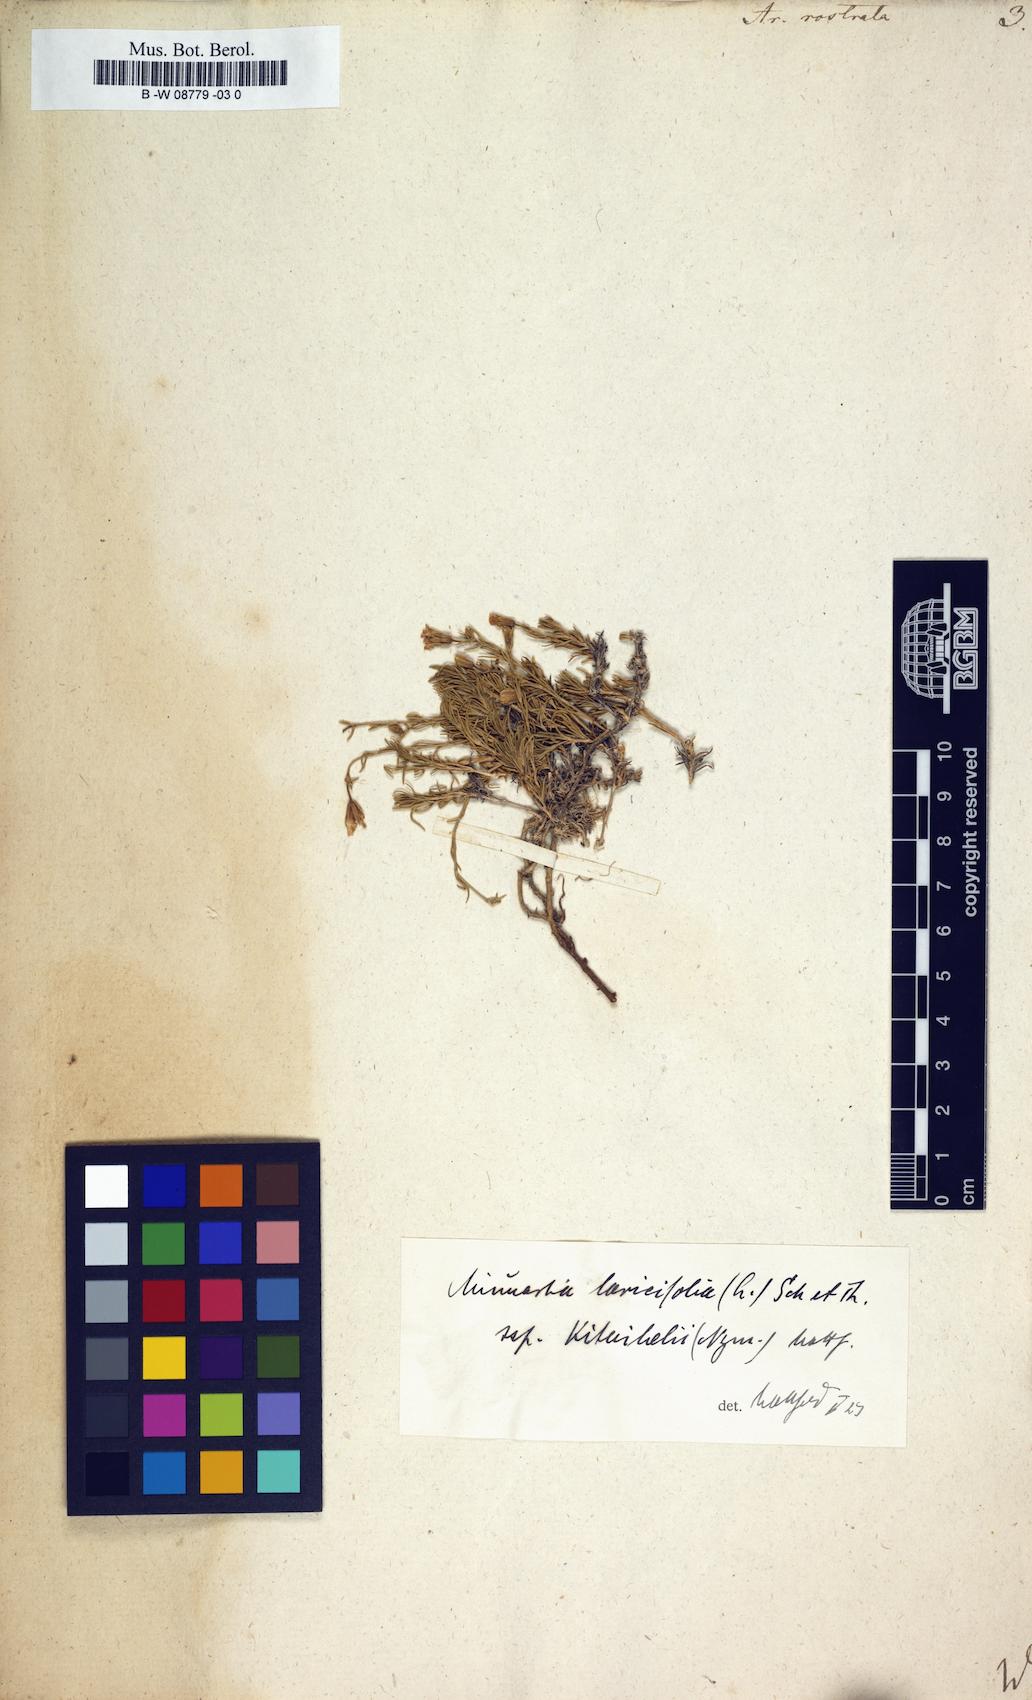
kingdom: Plantae
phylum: Tracheophyta
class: Magnoliopsida
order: Caryophyllales
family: Caryophyllaceae
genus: Cherleria
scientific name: Cherleria
